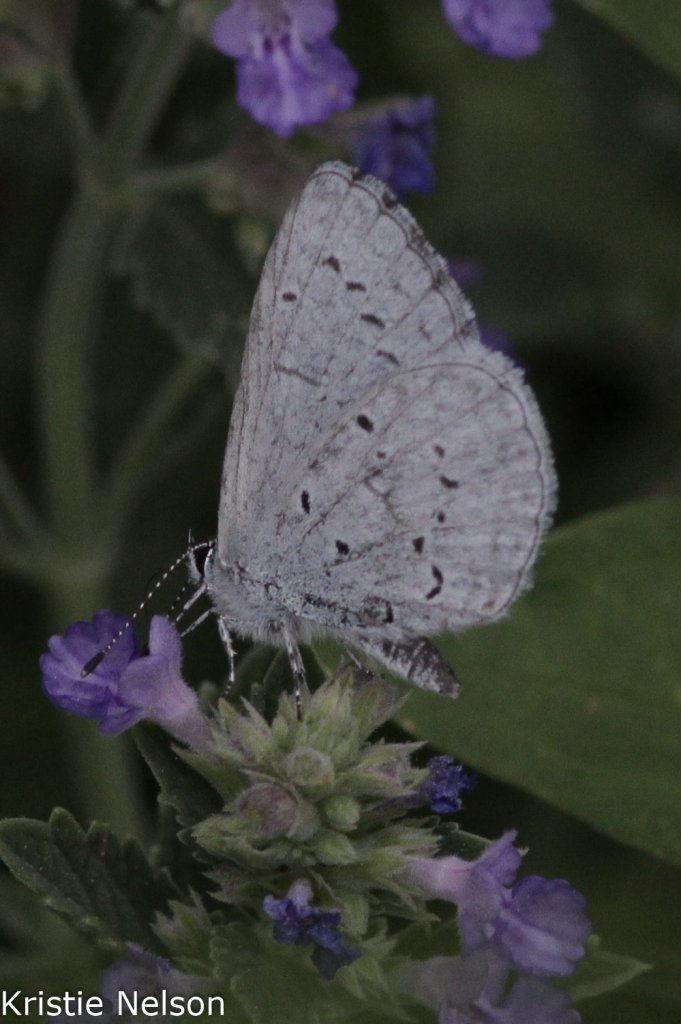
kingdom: Animalia
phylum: Arthropoda
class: Insecta
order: Lepidoptera
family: Lycaenidae
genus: Celastrina
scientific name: Celastrina ladon
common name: Echo Azure
